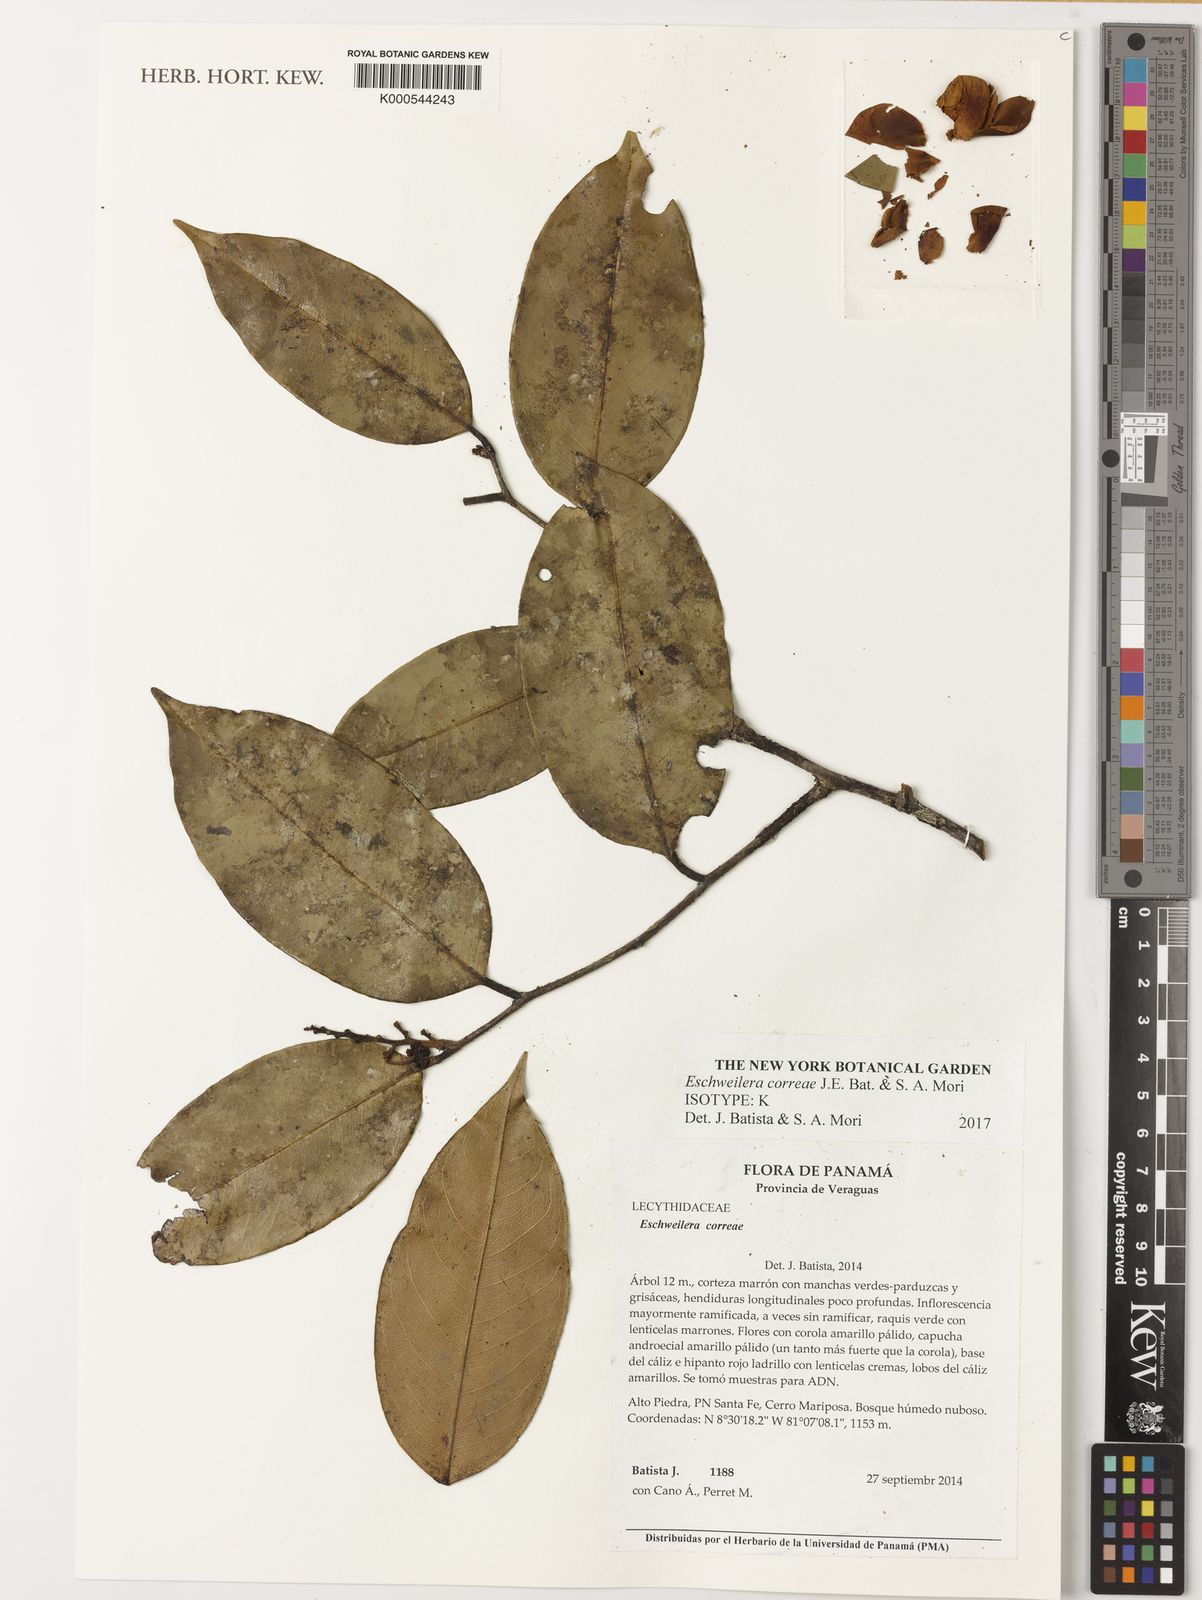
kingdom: Plantae
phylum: Tracheophyta
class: Magnoliopsida
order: Ericales
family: Lecythidaceae
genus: Eschweilera
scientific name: Eschweilera correae
